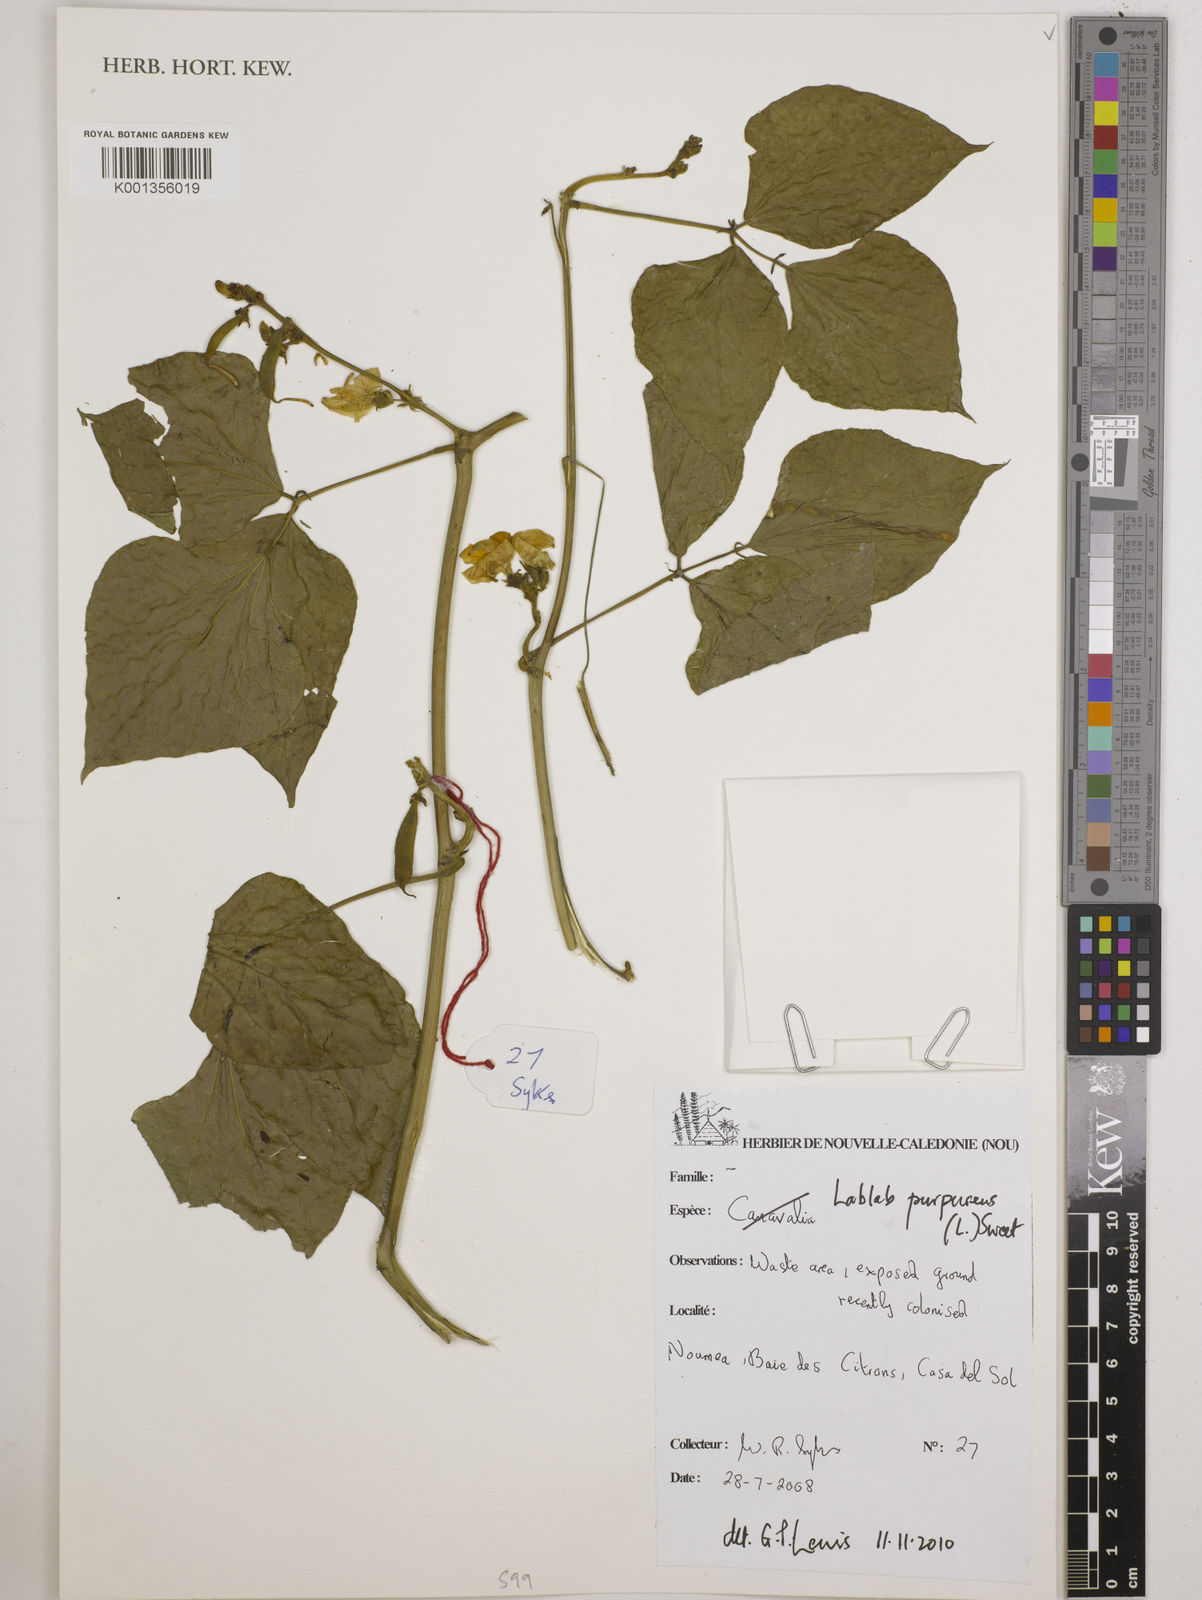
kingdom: Plantae
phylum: Tracheophyta
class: Magnoliopsida
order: Fabales
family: Fabaceae
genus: Lablab
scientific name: Lablab purpureus
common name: Lablab-bean
